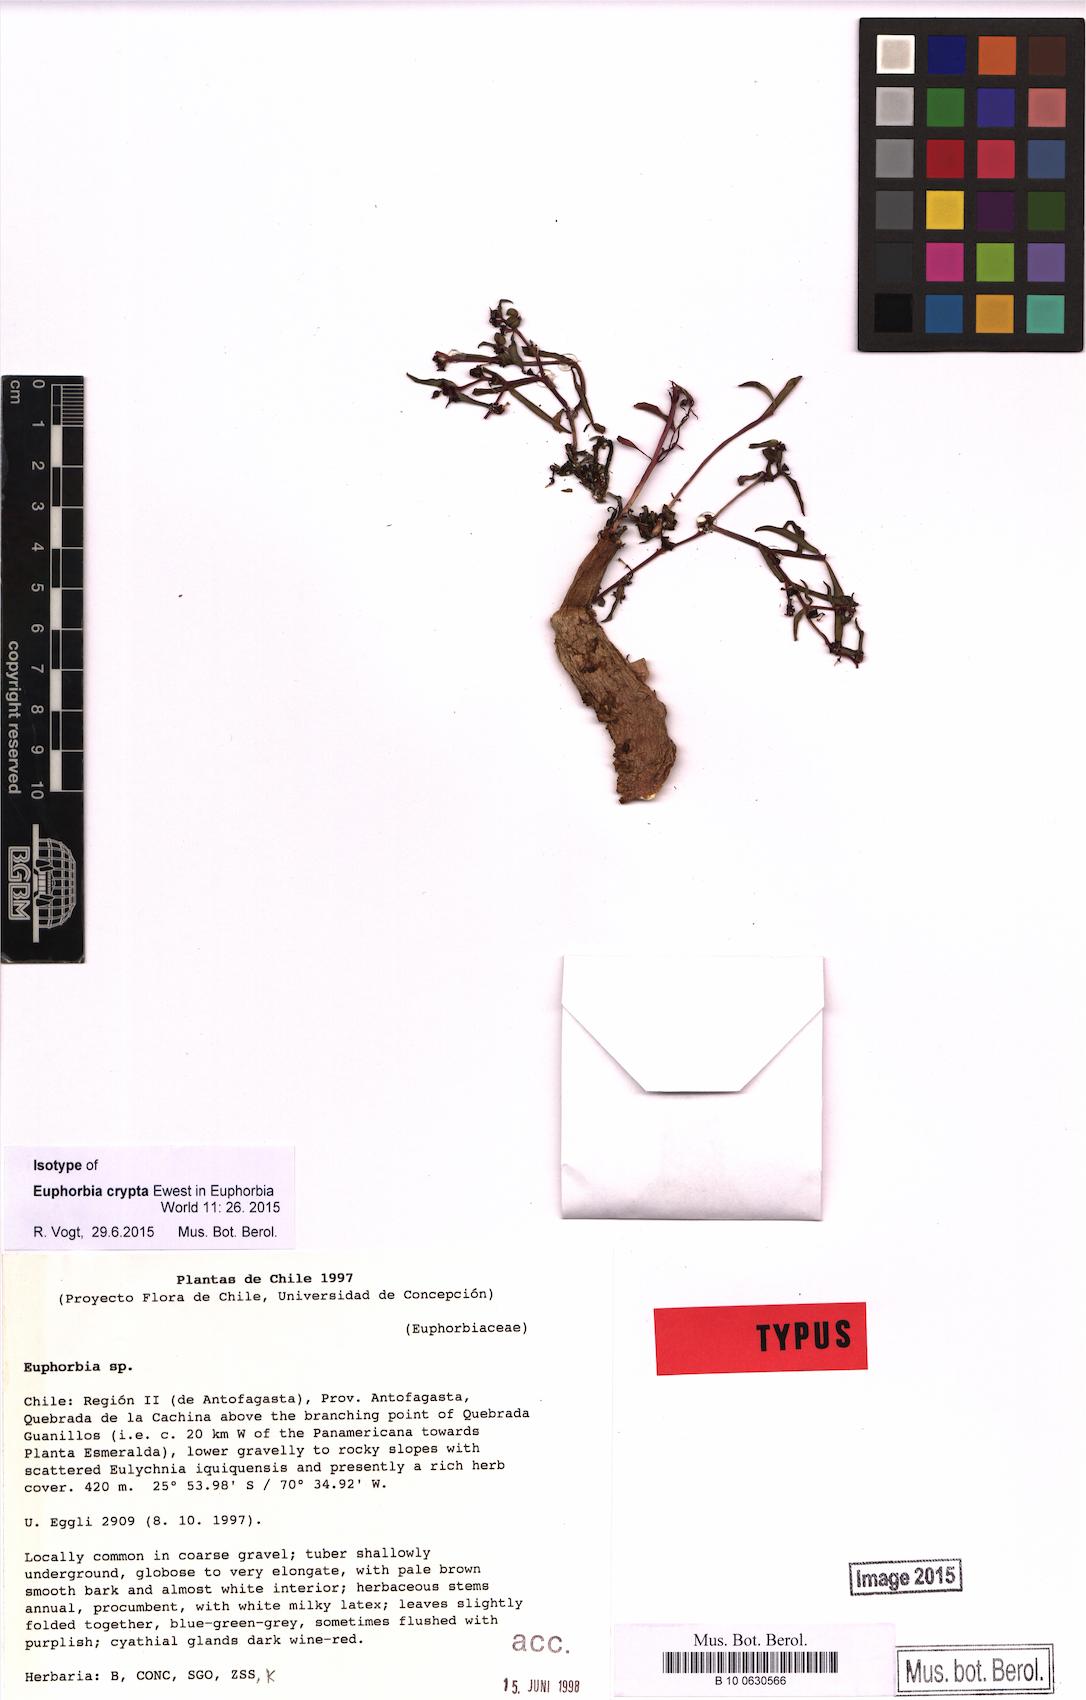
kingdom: Plantae
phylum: Tracheophyta
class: Magnoliopsida
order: Malpighiales
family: Euphorbiaceae
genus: Euphorbia
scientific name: Euphorbia crypta
